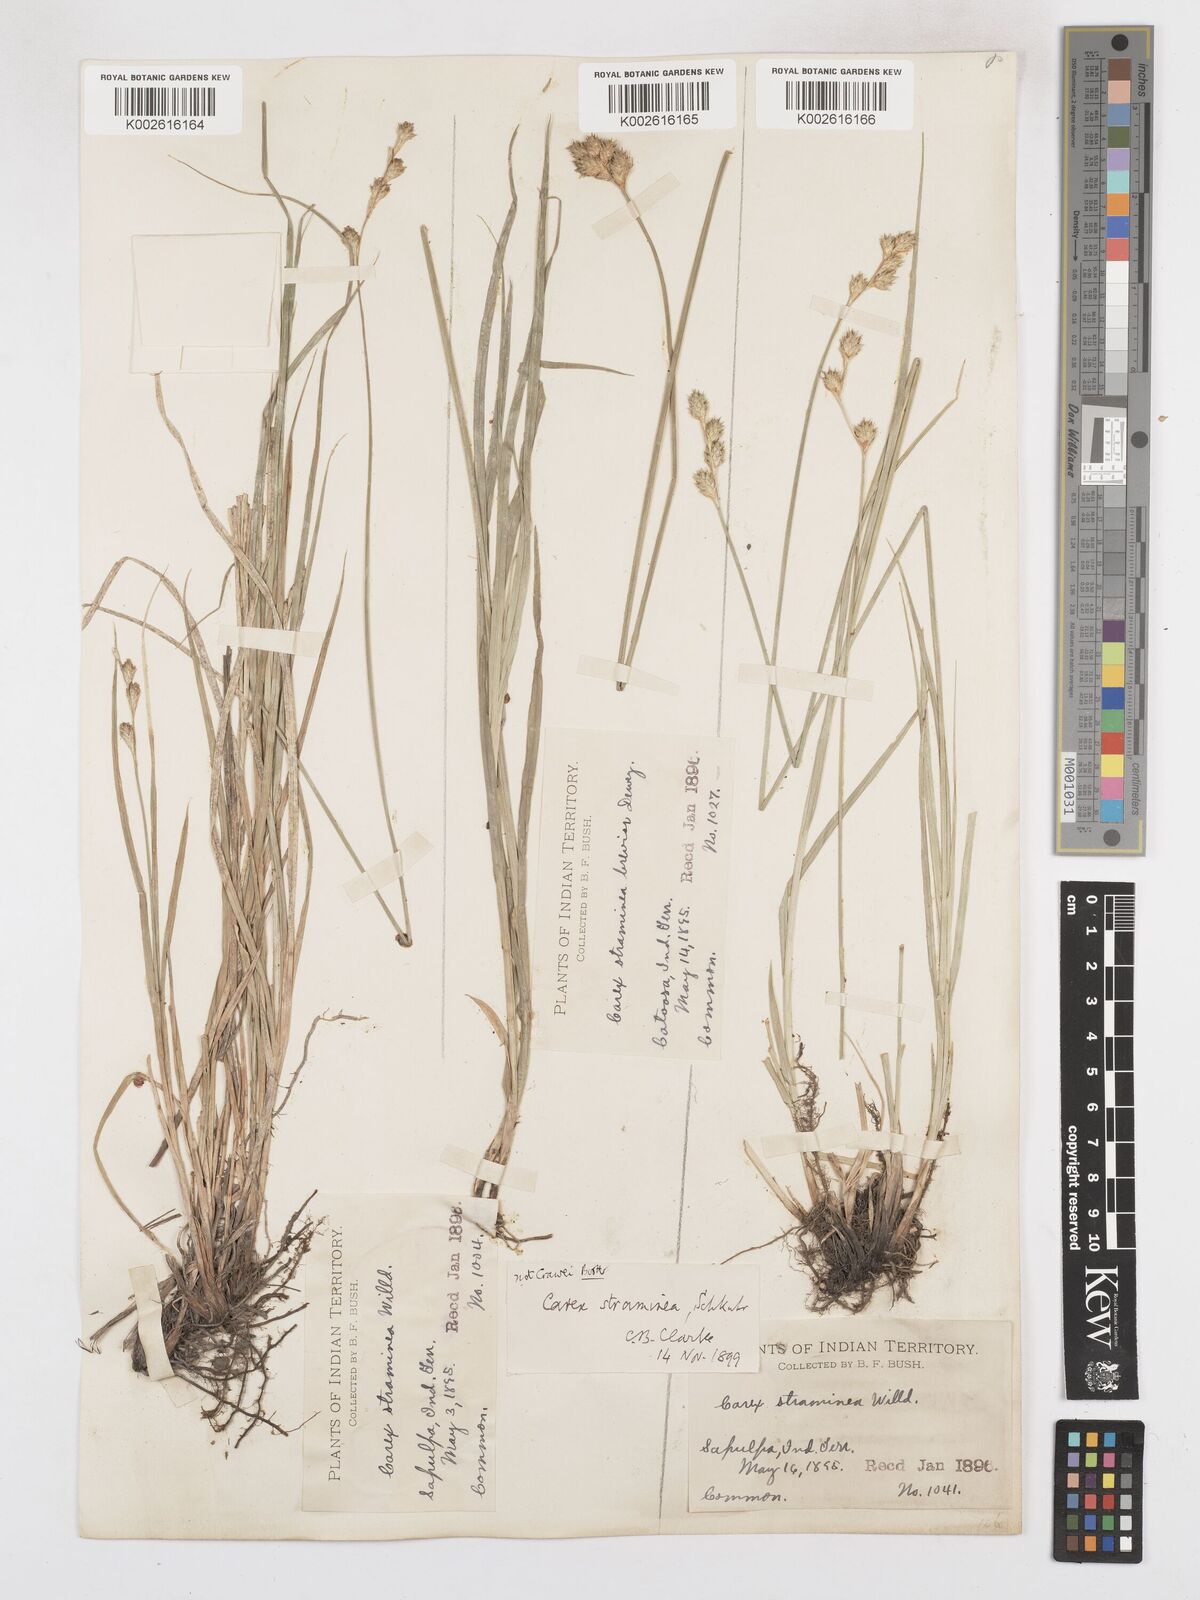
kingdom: Plantae
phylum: Tracheophyta
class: Liliopsida
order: Poales
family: Cyperaceae
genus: Carex
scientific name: Carex brevior
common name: Brevior sedge
